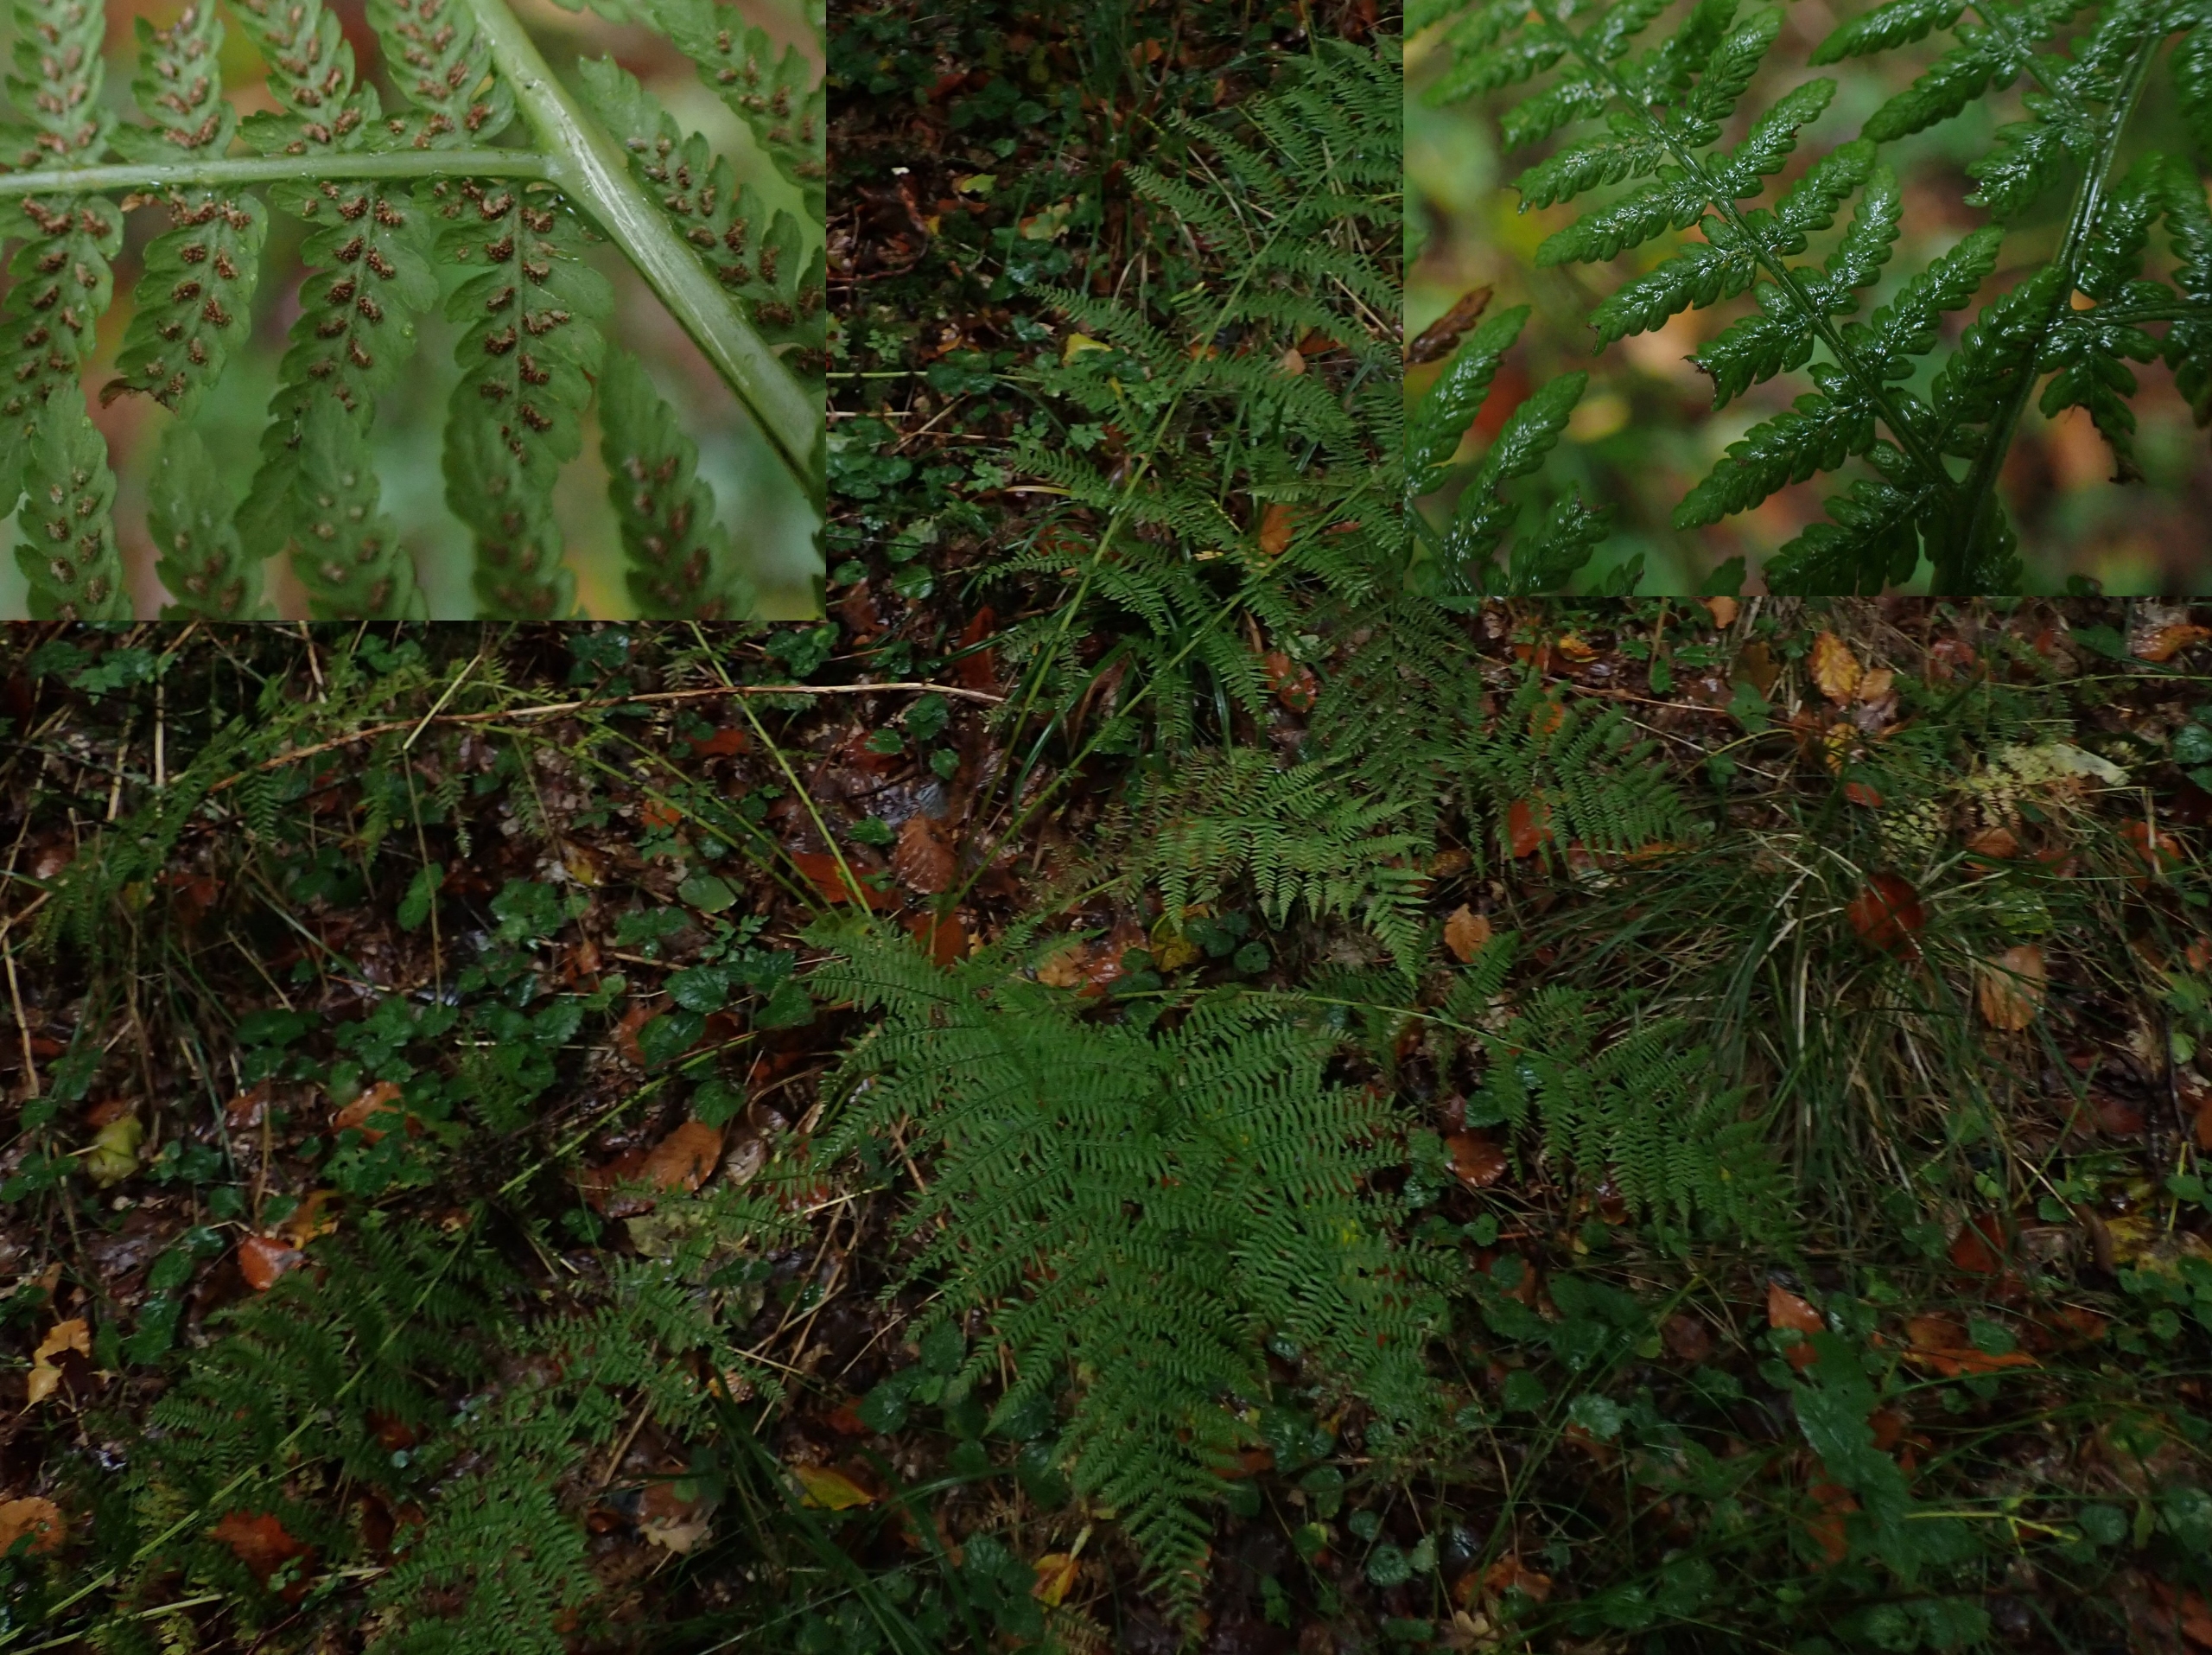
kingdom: Plantae
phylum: Tracheophyta
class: Polypodiopsida
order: Polypodiales
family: Athyriaceae
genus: Athyrium
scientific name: Athyrium filix-femina
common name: Fjerbregne
